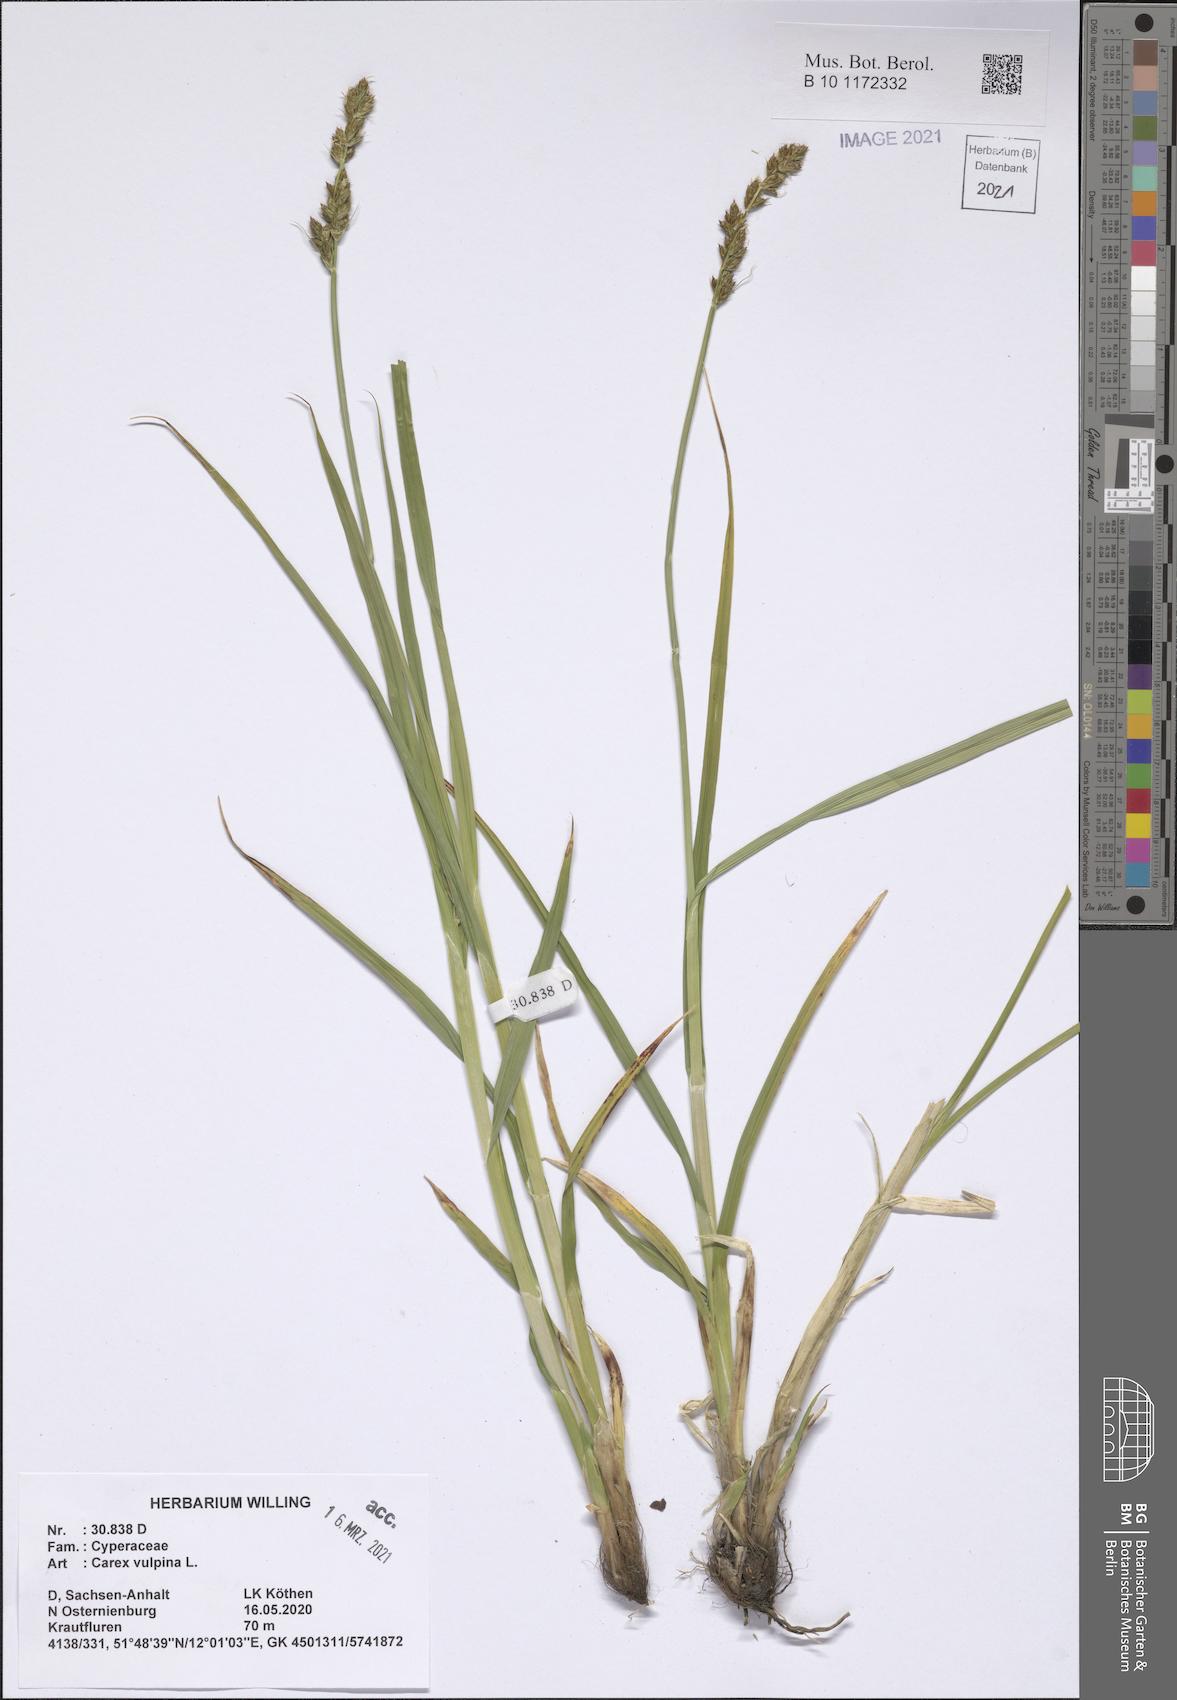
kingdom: Plantae
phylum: Tracheophyta
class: Liliopsida
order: Poales
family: Cyperaceae
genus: Carex
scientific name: Carex vulpina
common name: True fox-sedge
